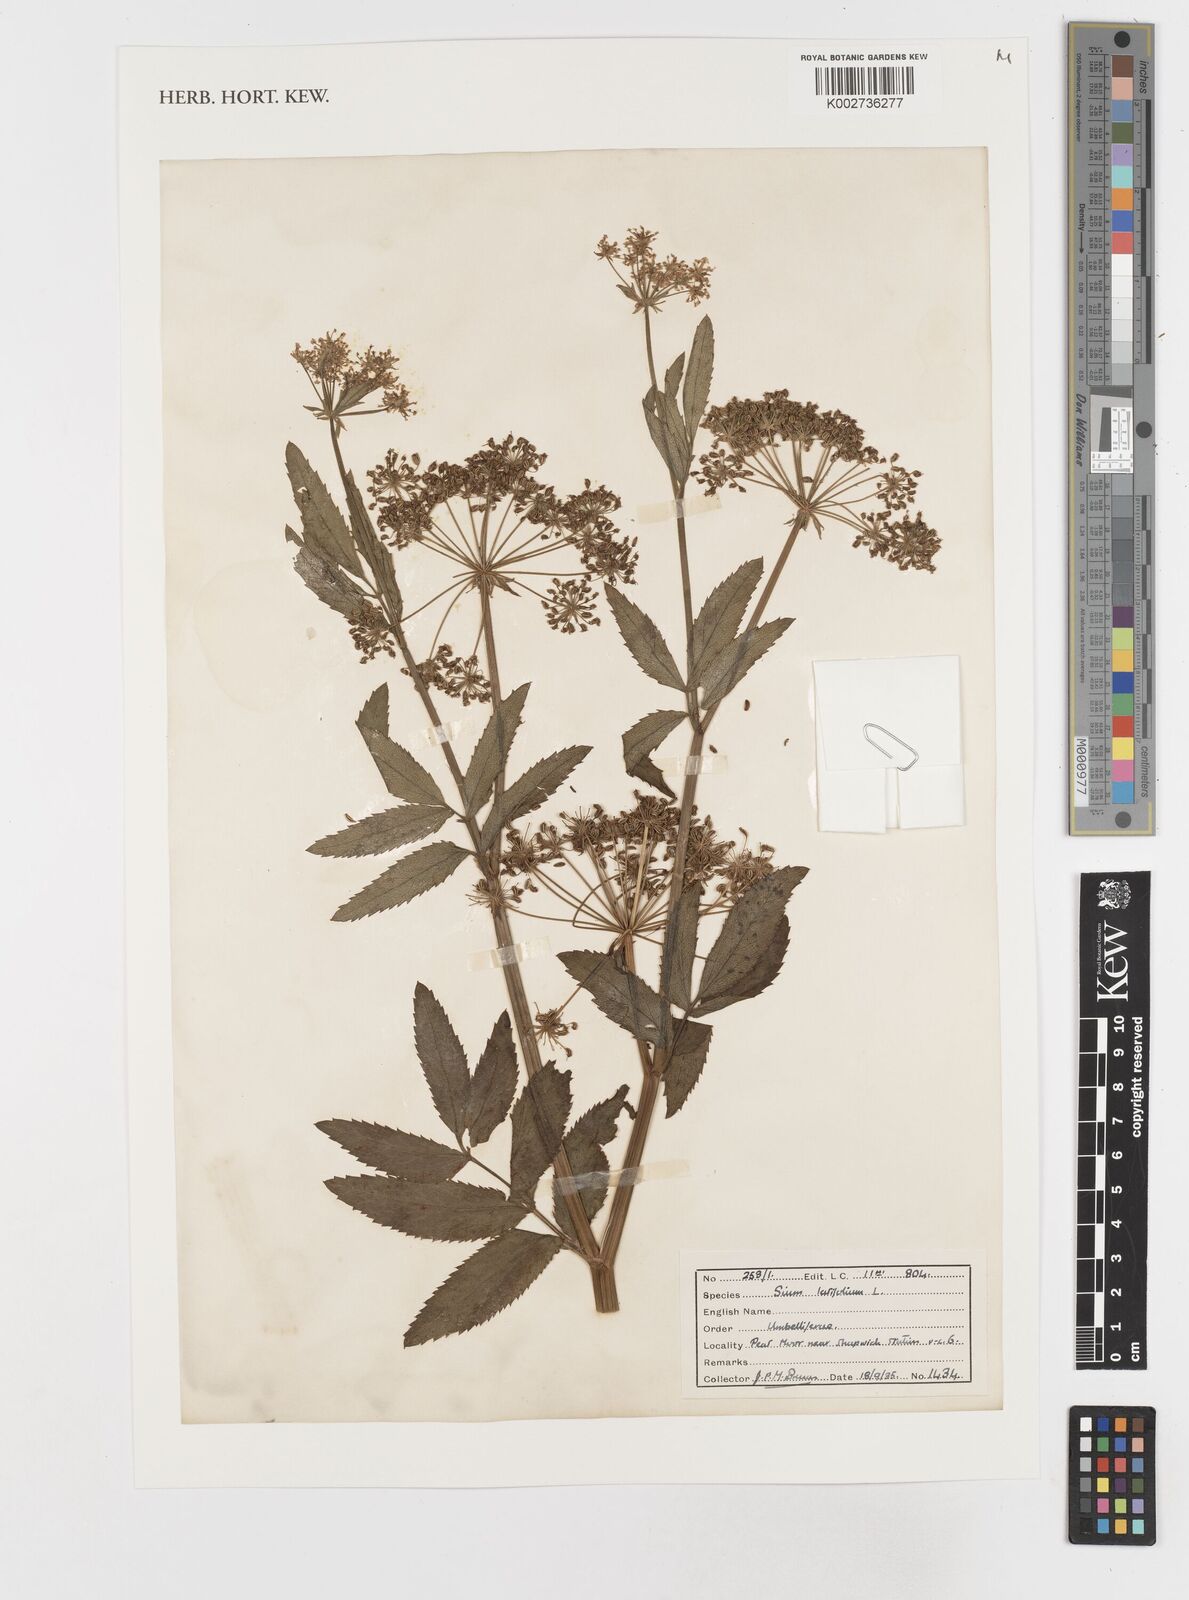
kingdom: Plantae
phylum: Tracheophyta
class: Magnoliopsida
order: Apiales
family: Apiaceae
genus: Sium
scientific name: Sium latifolium
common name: Greater water-parsnip
